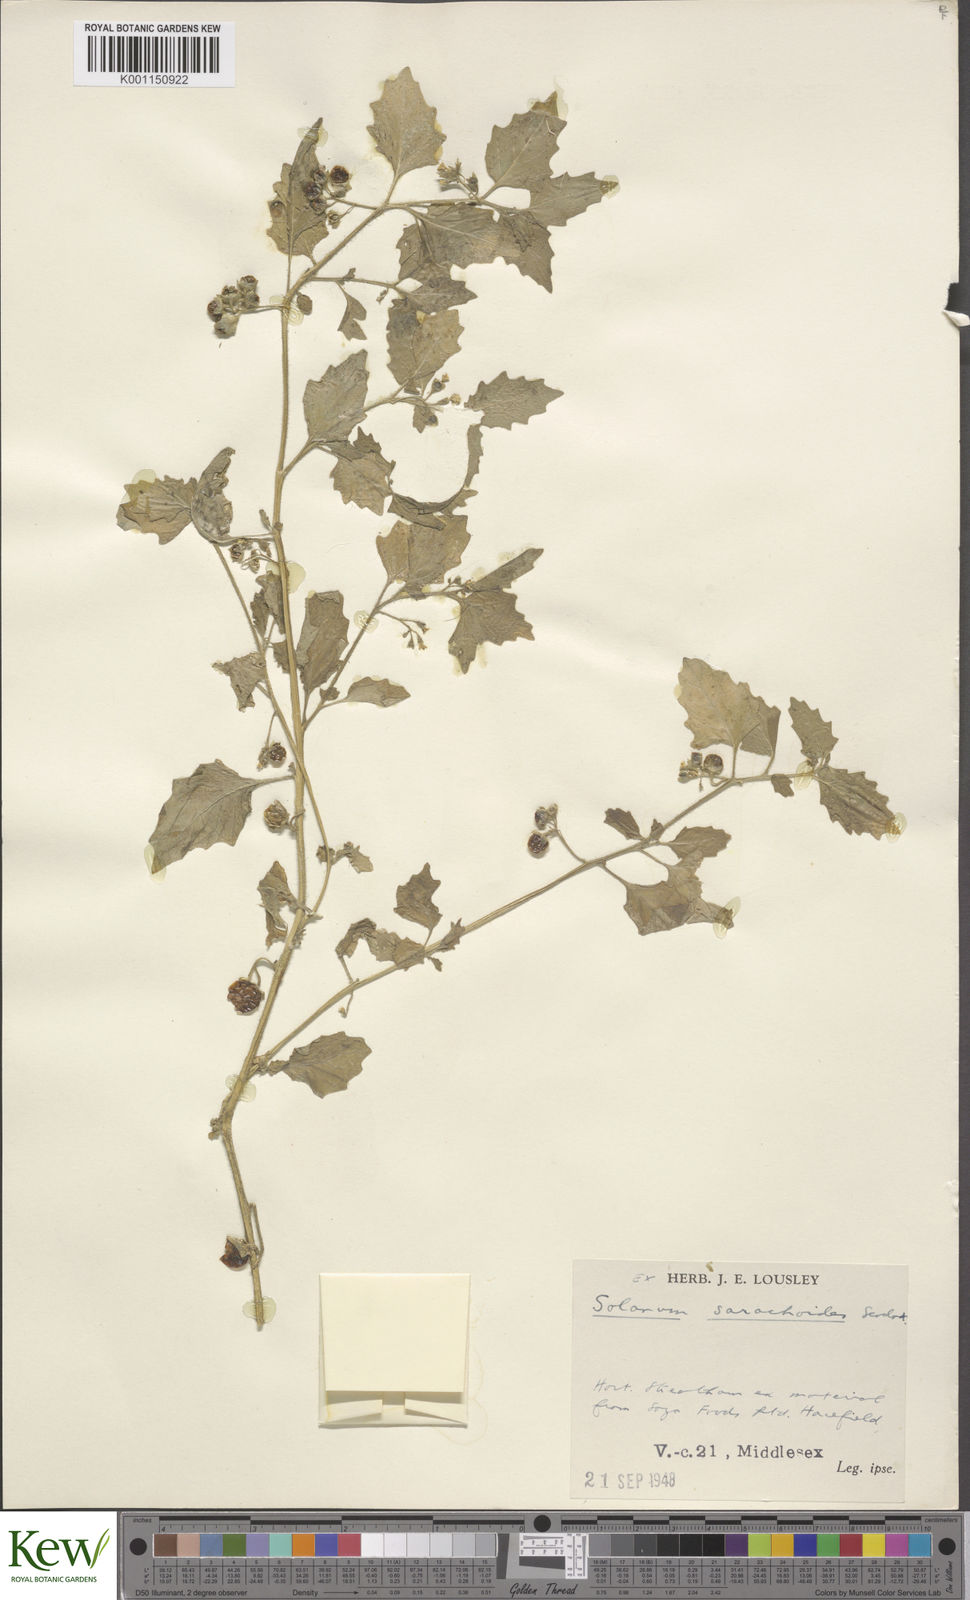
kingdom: Plantae
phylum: Tracheophyta
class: Magnoliopsida
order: Solanales
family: Solanaceae
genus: Solanum
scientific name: Solanum nitidibaccatum
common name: Hairy nightshade
